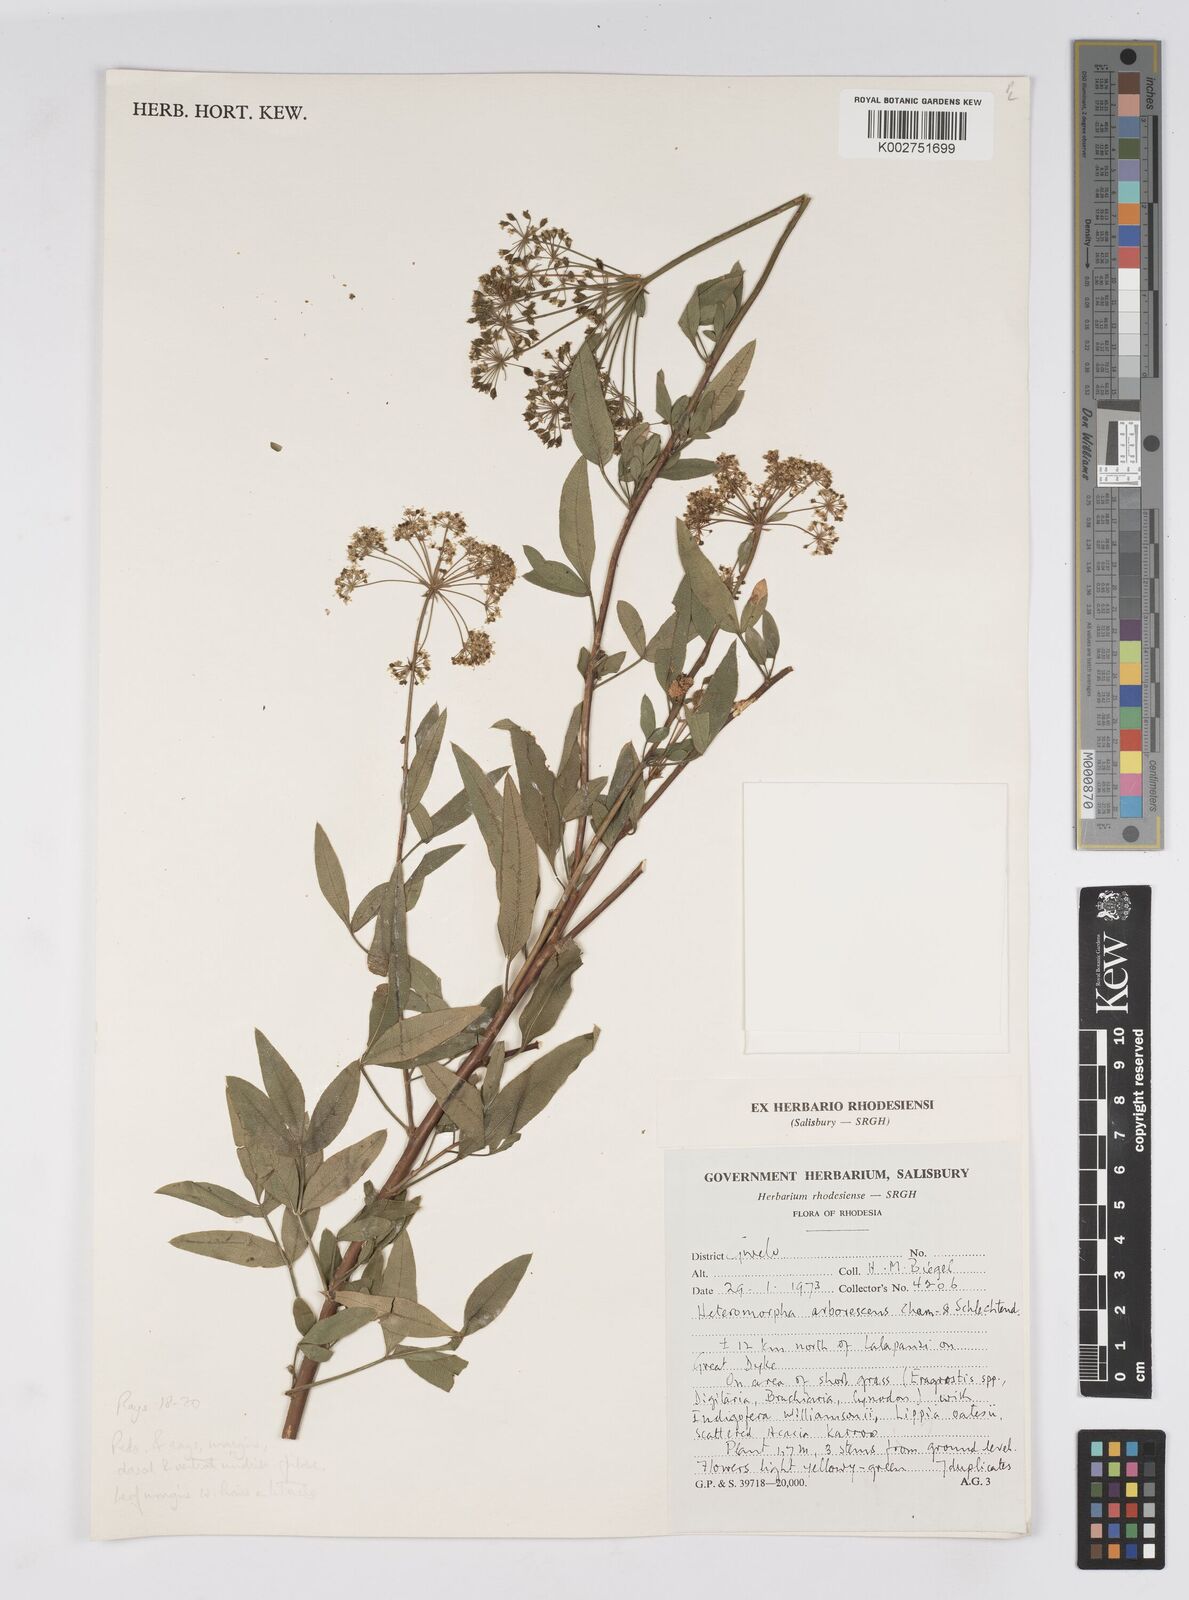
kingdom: Plantae
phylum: Tracheophyta
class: Magnoliopsida
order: Apiales
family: Apiaceae
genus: Heteromorpha
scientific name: Heteromorpha stenophylla
